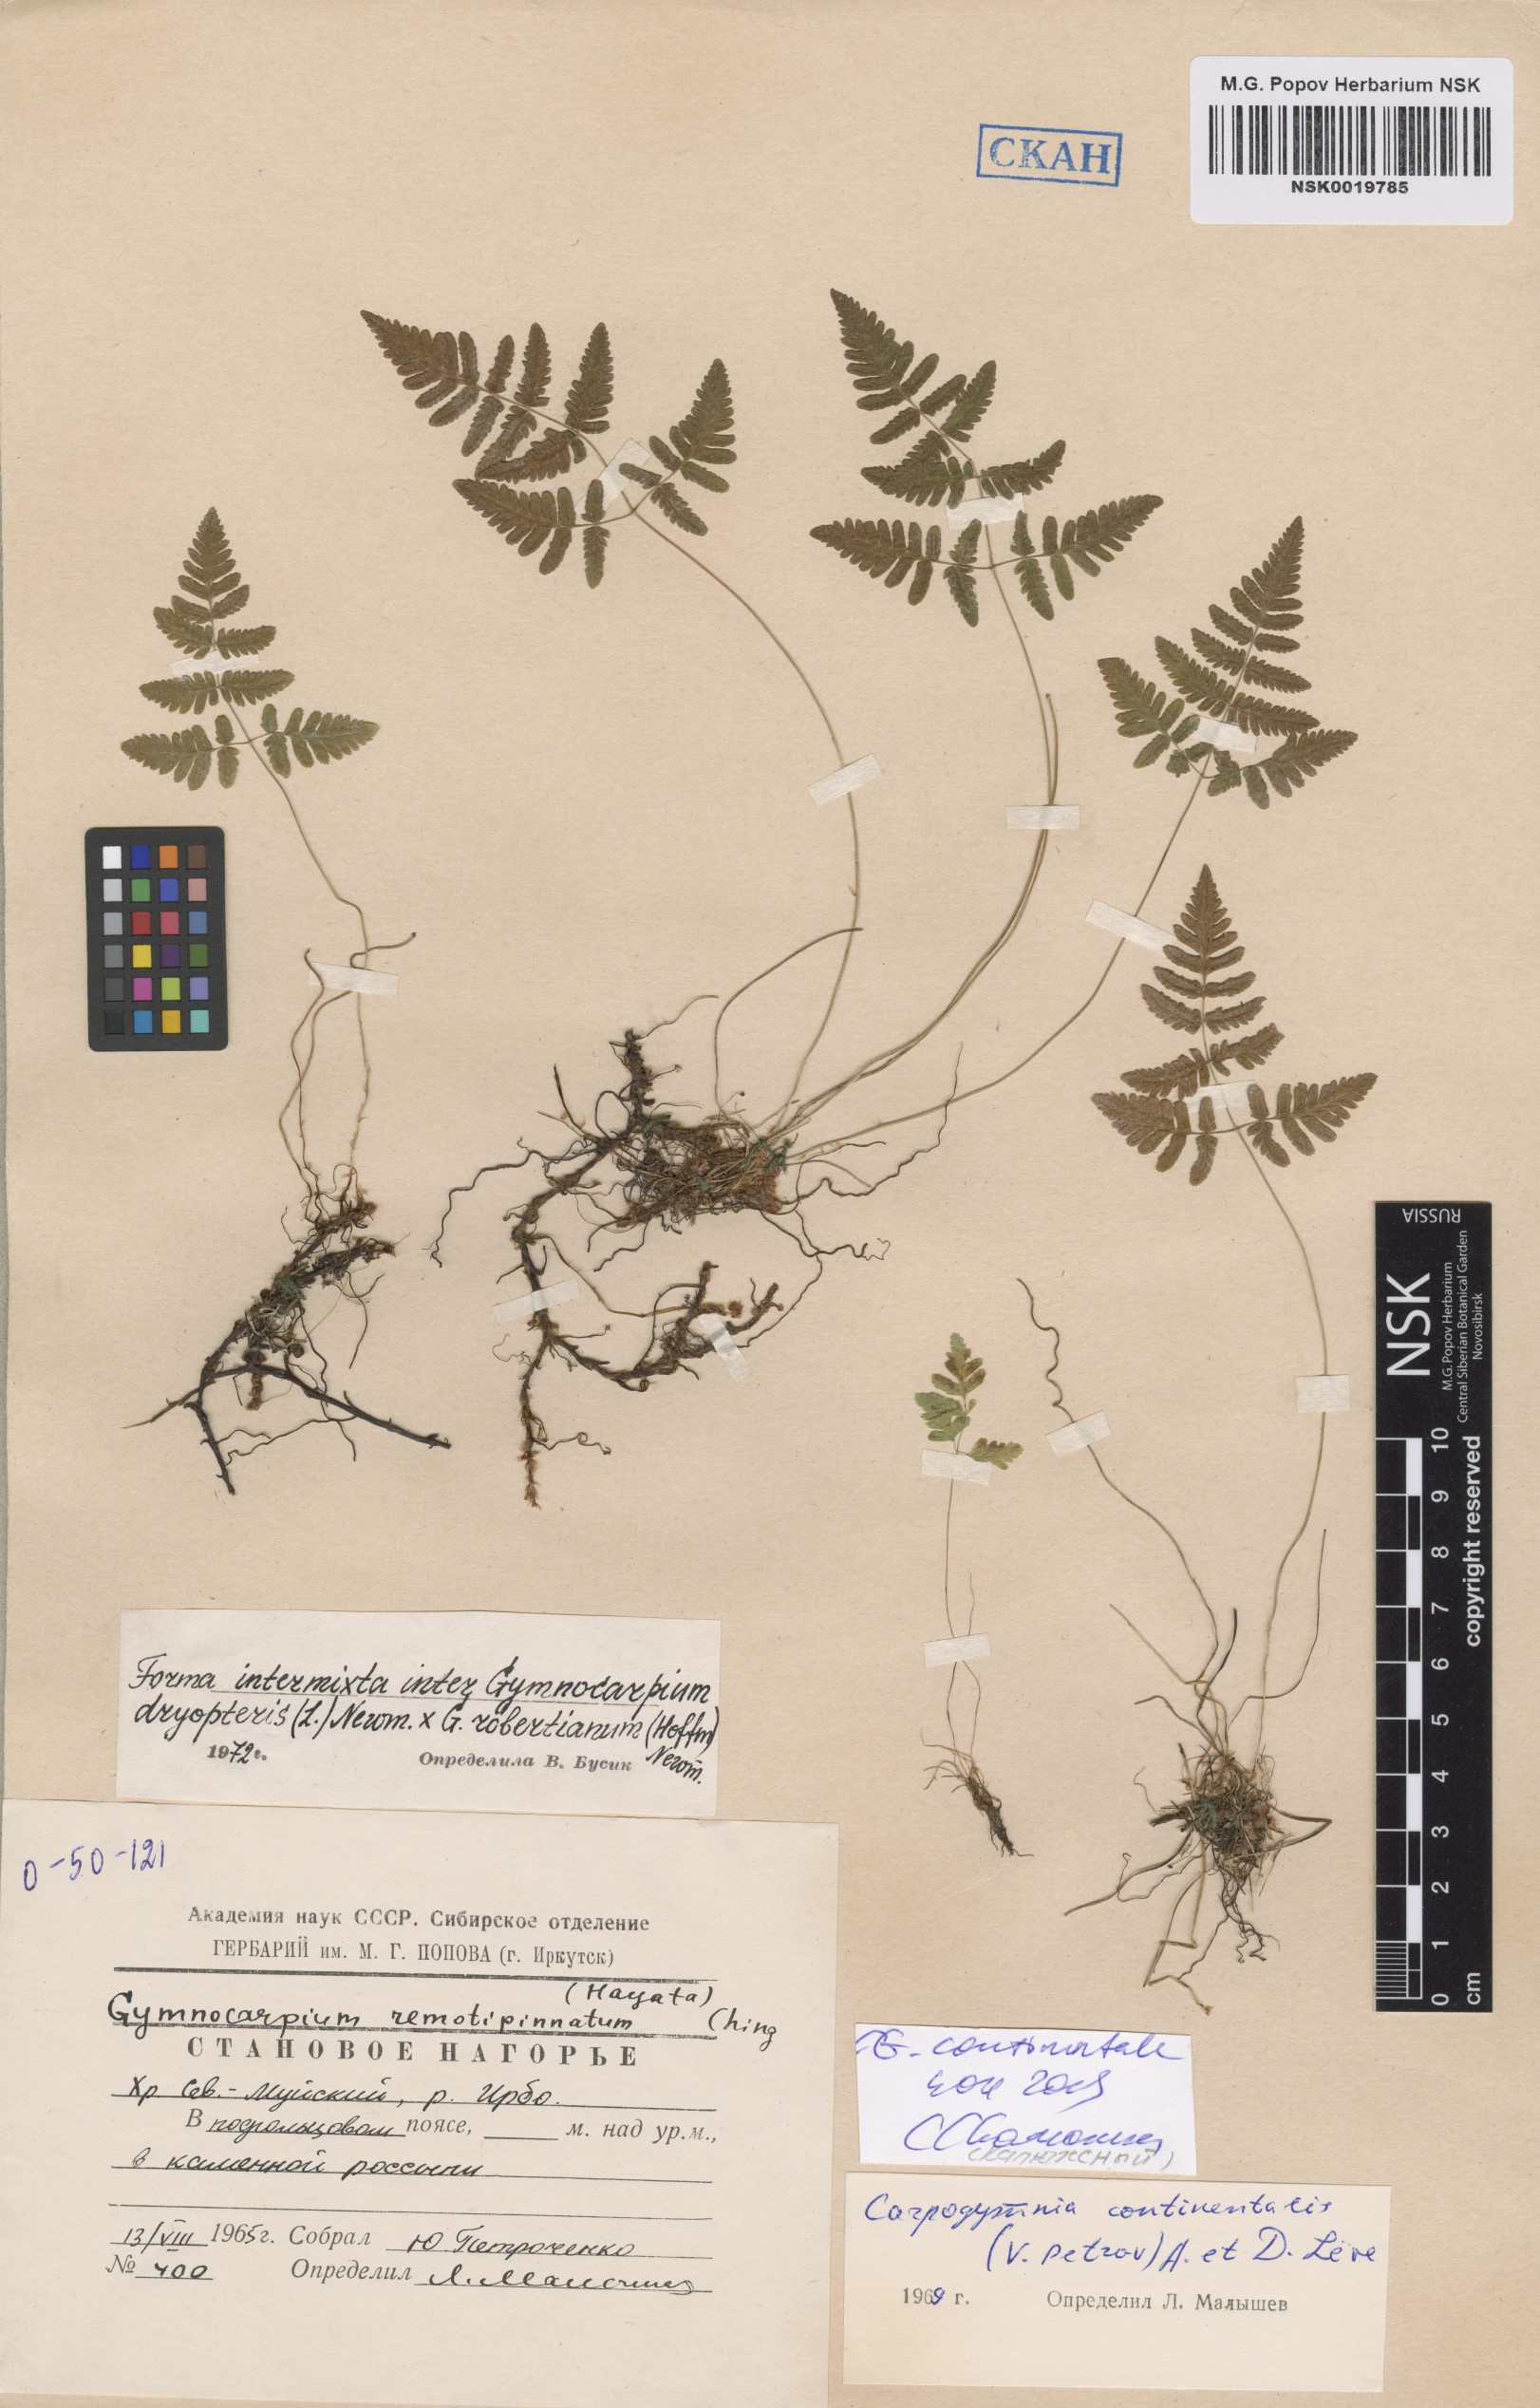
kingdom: Plantae
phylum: Tracheophyta
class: Polypodiopsida
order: Polypodiales
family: Cystopteridaceae
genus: Gymnocarpium
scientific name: Gymnocarpium continentale
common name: Asian oak fern
